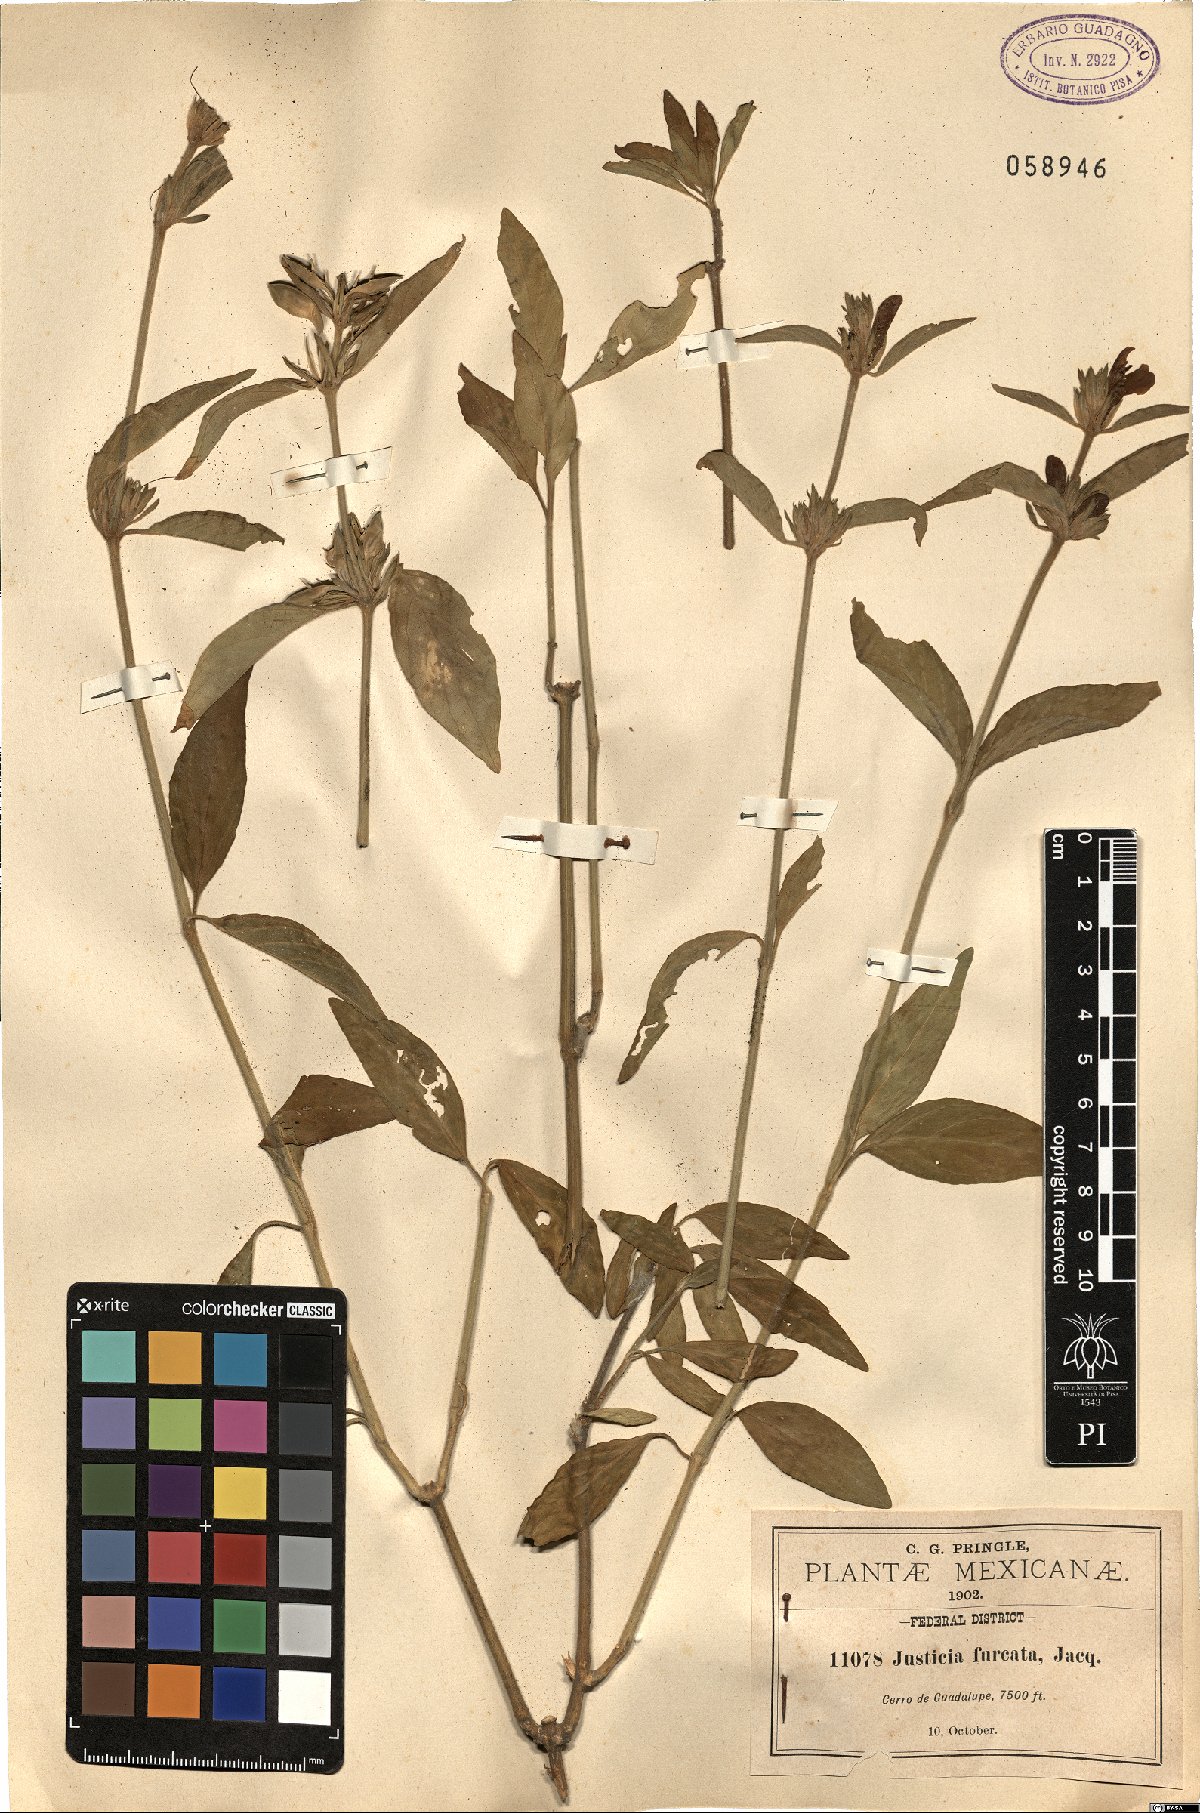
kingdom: Plantae
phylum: Tracheophyta
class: Magnoliopsida
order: Lamiales
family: Acanthaceae
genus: Justicia
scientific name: Justicia furcata
